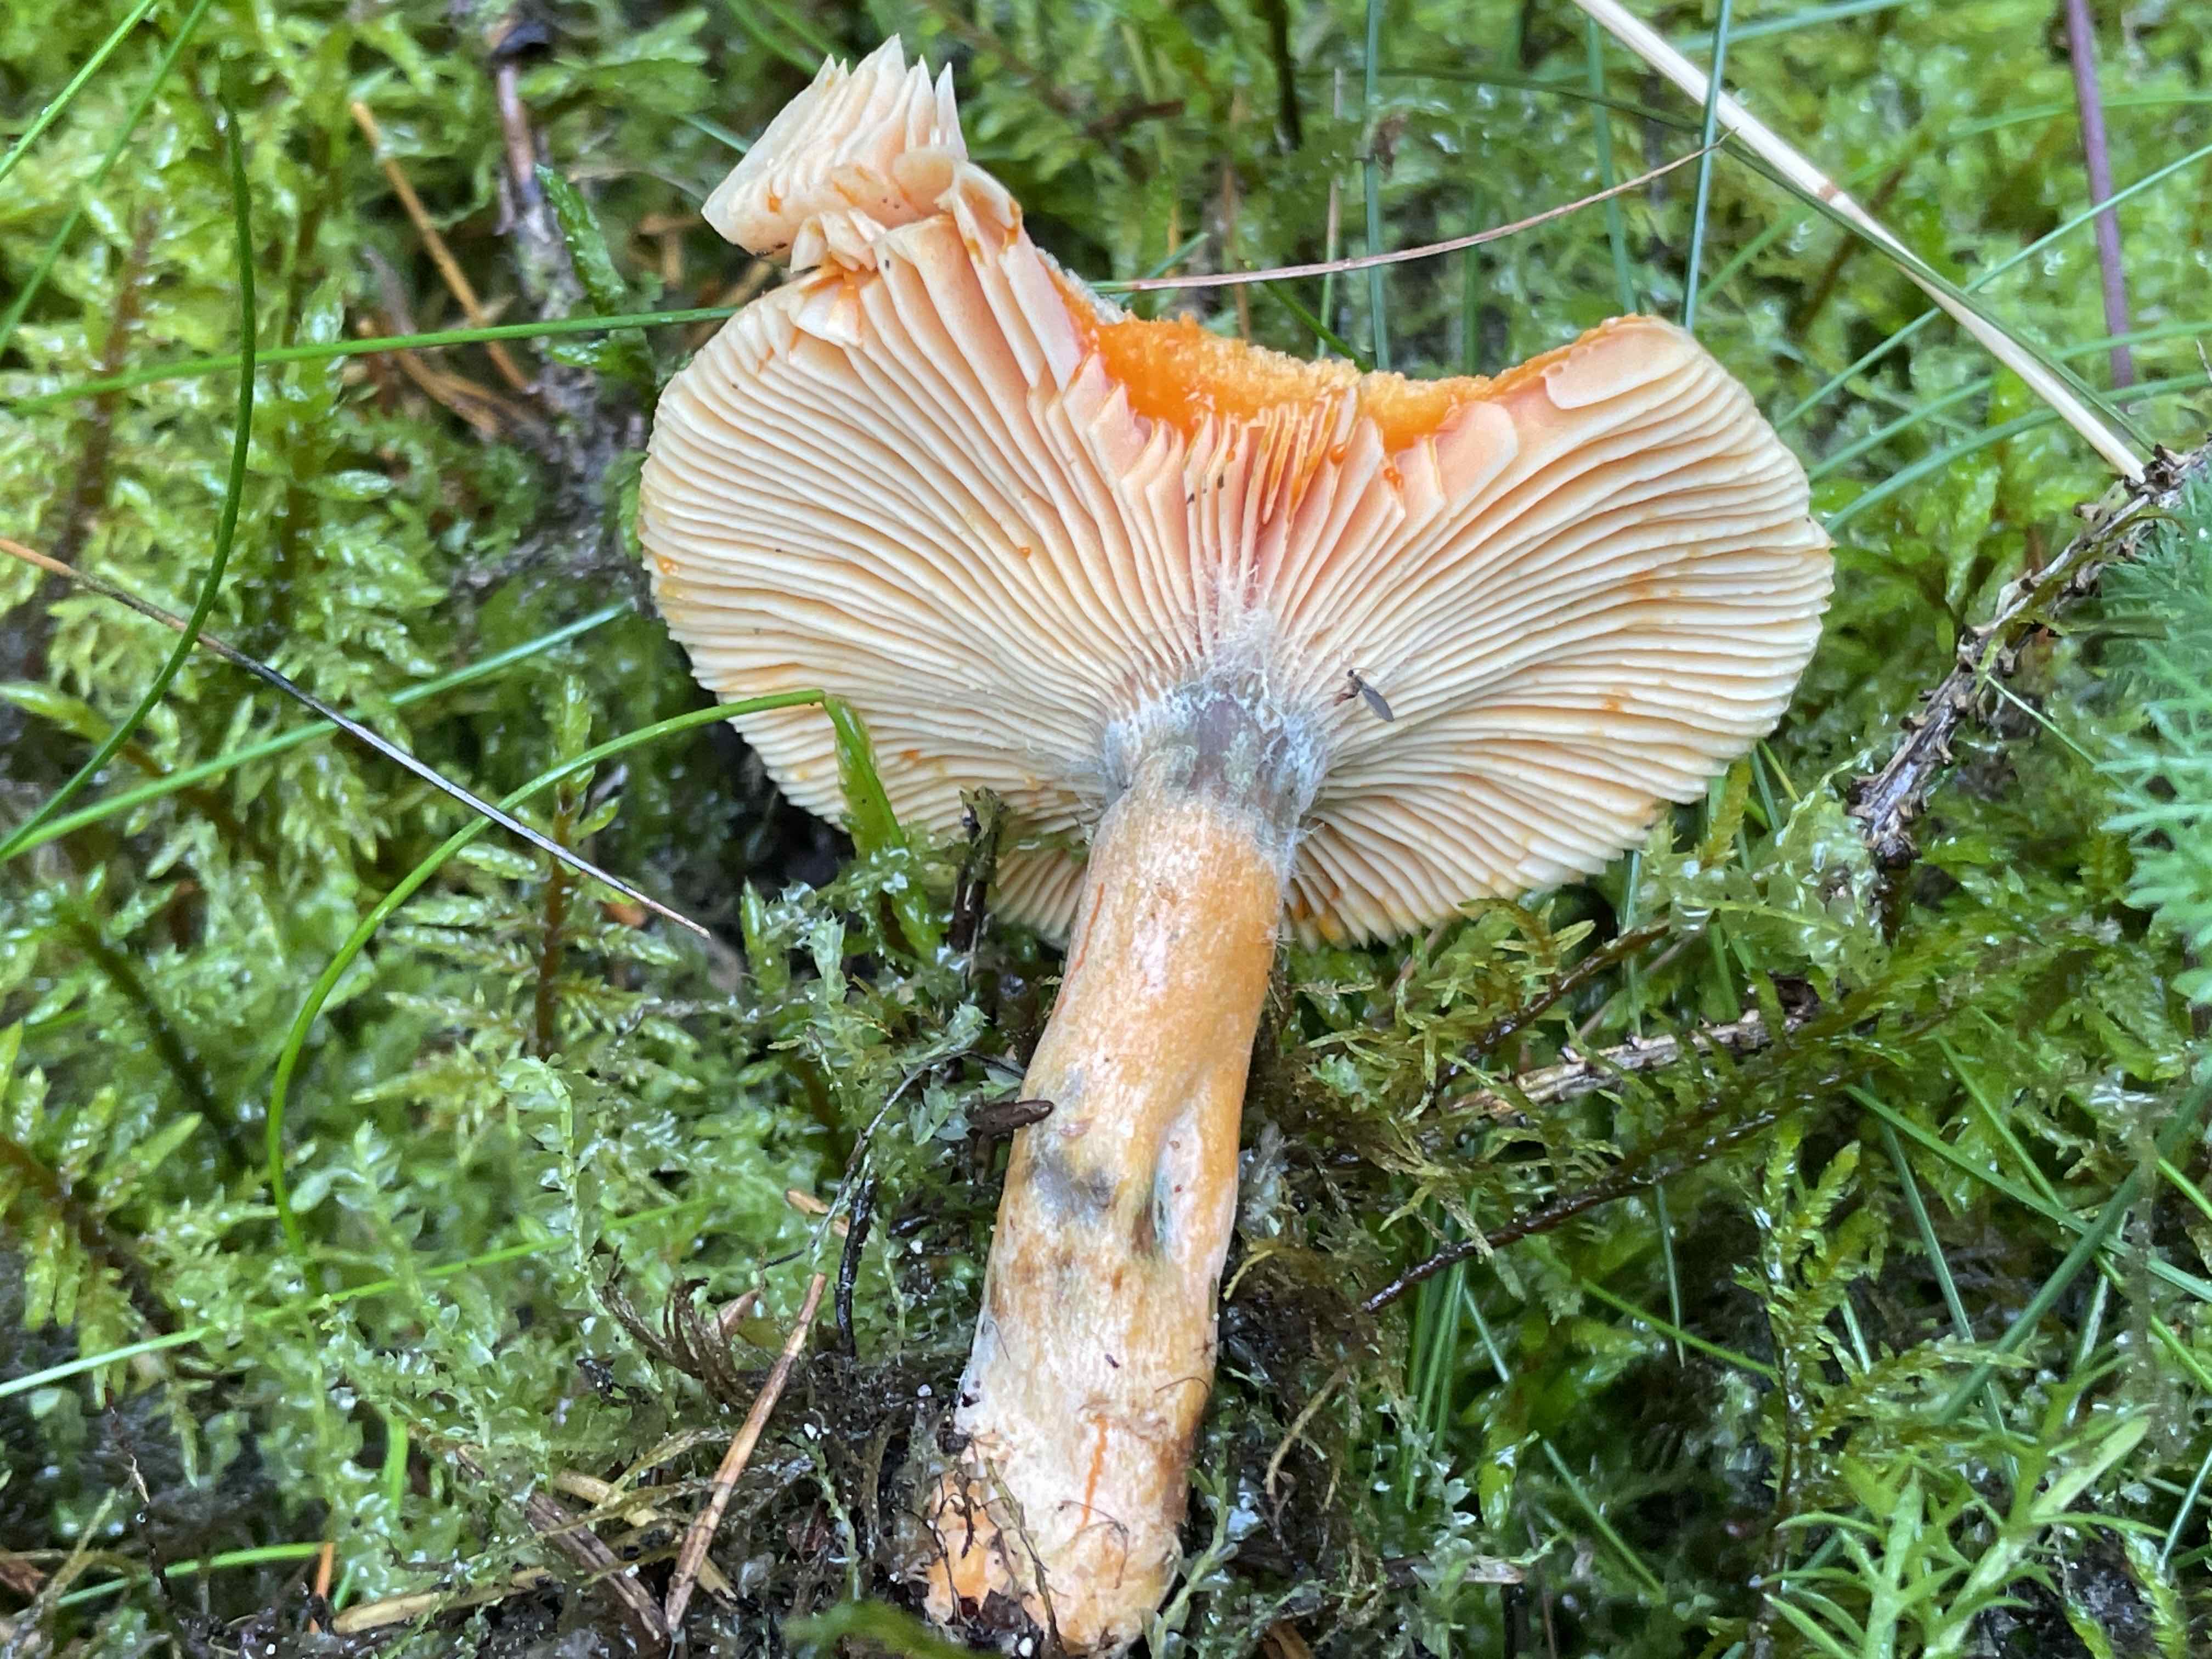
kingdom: Fungi
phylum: Basidiomycota
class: Agaricomycetes
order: Russulales
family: Russulaceae
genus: Lactarius
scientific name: Lactarius deterrimus
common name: gran-mælkehat
